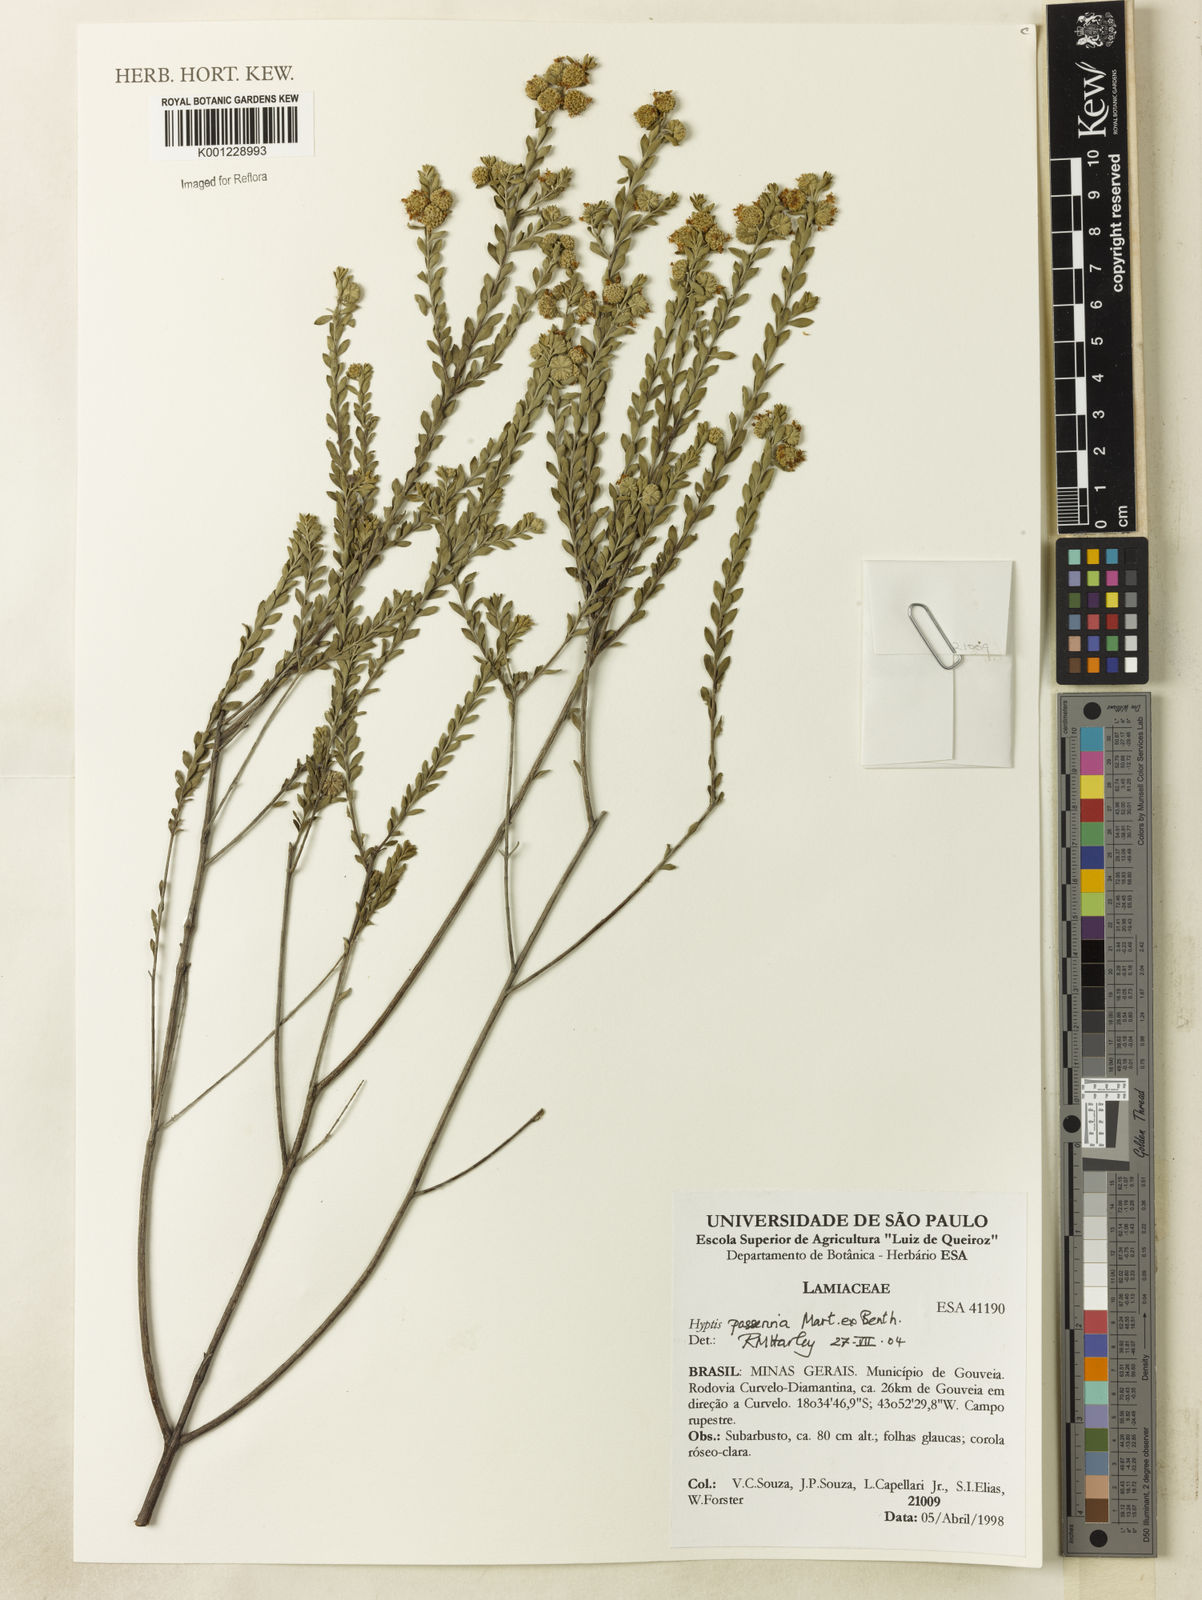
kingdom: Plantae
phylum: Tracheophyta
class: Magnoliopsida
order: Lamiales
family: Lamiaceae
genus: Hyptis
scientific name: Hyptis passerina
